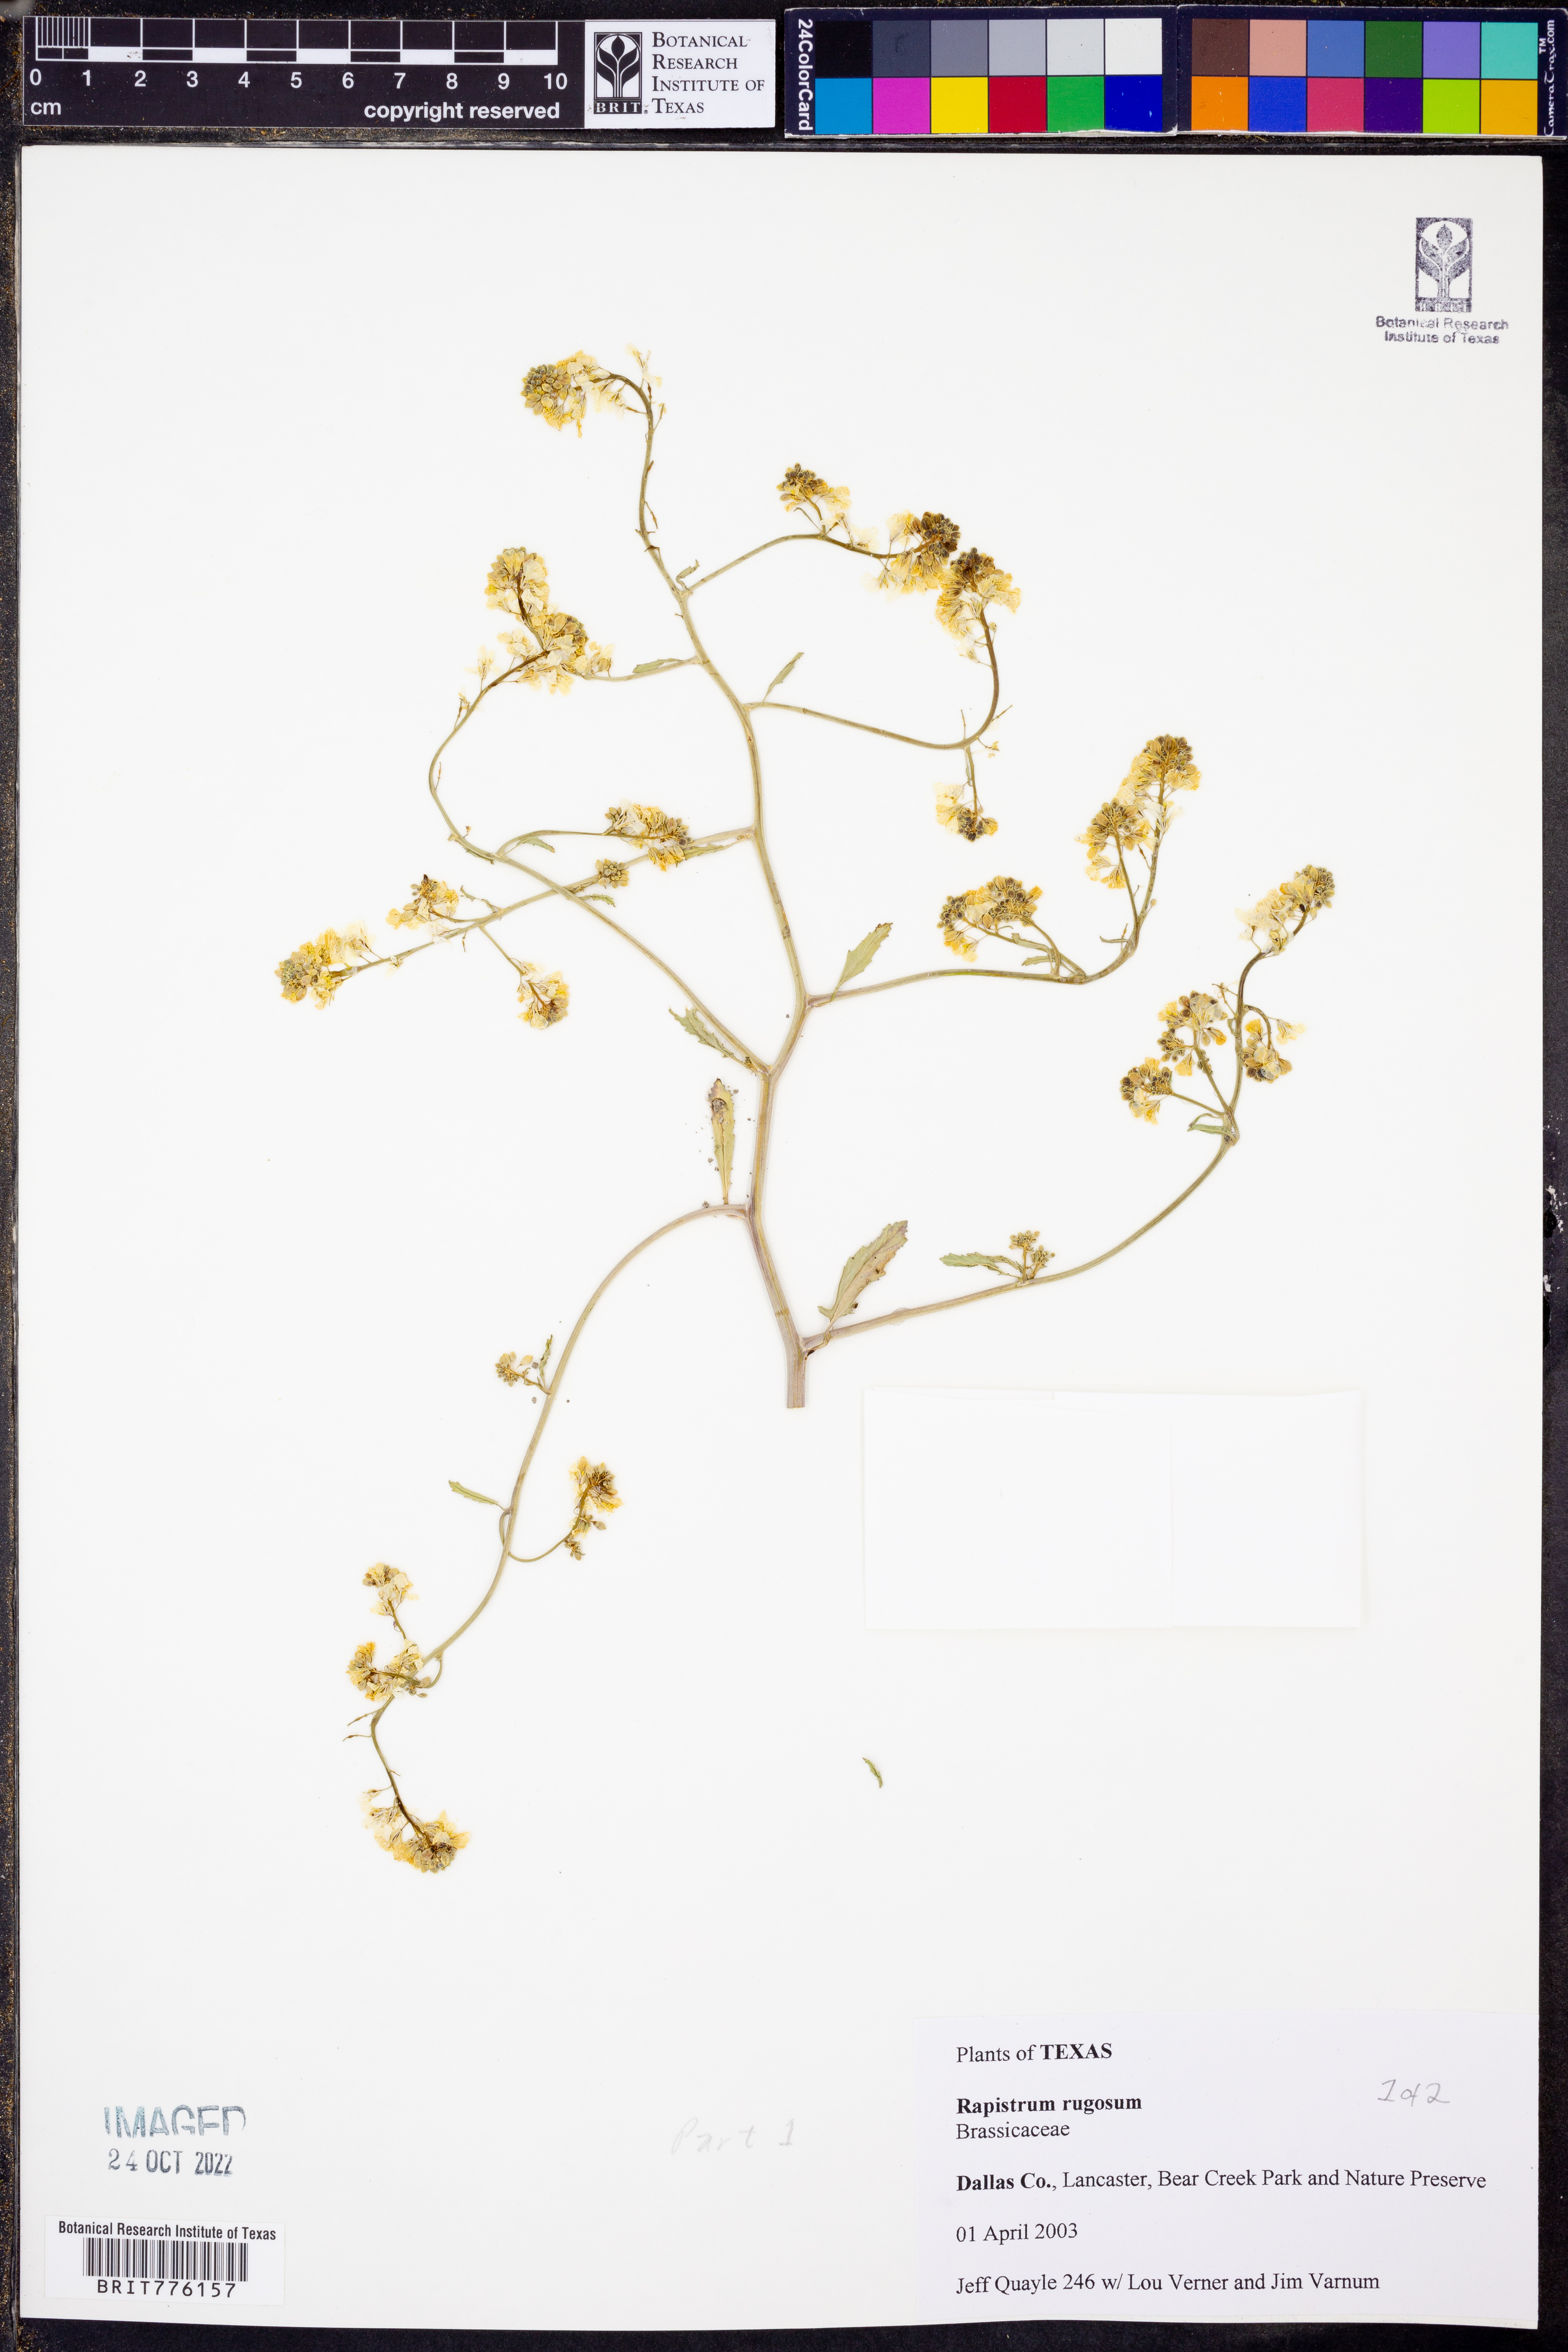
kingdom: Plantae
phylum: Tracheophyta
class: Magnoliopsida
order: Brassicales
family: Brassicaceae
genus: Rapistrum
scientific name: Rapistrum rugosum
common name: Annual bastardcabbage
